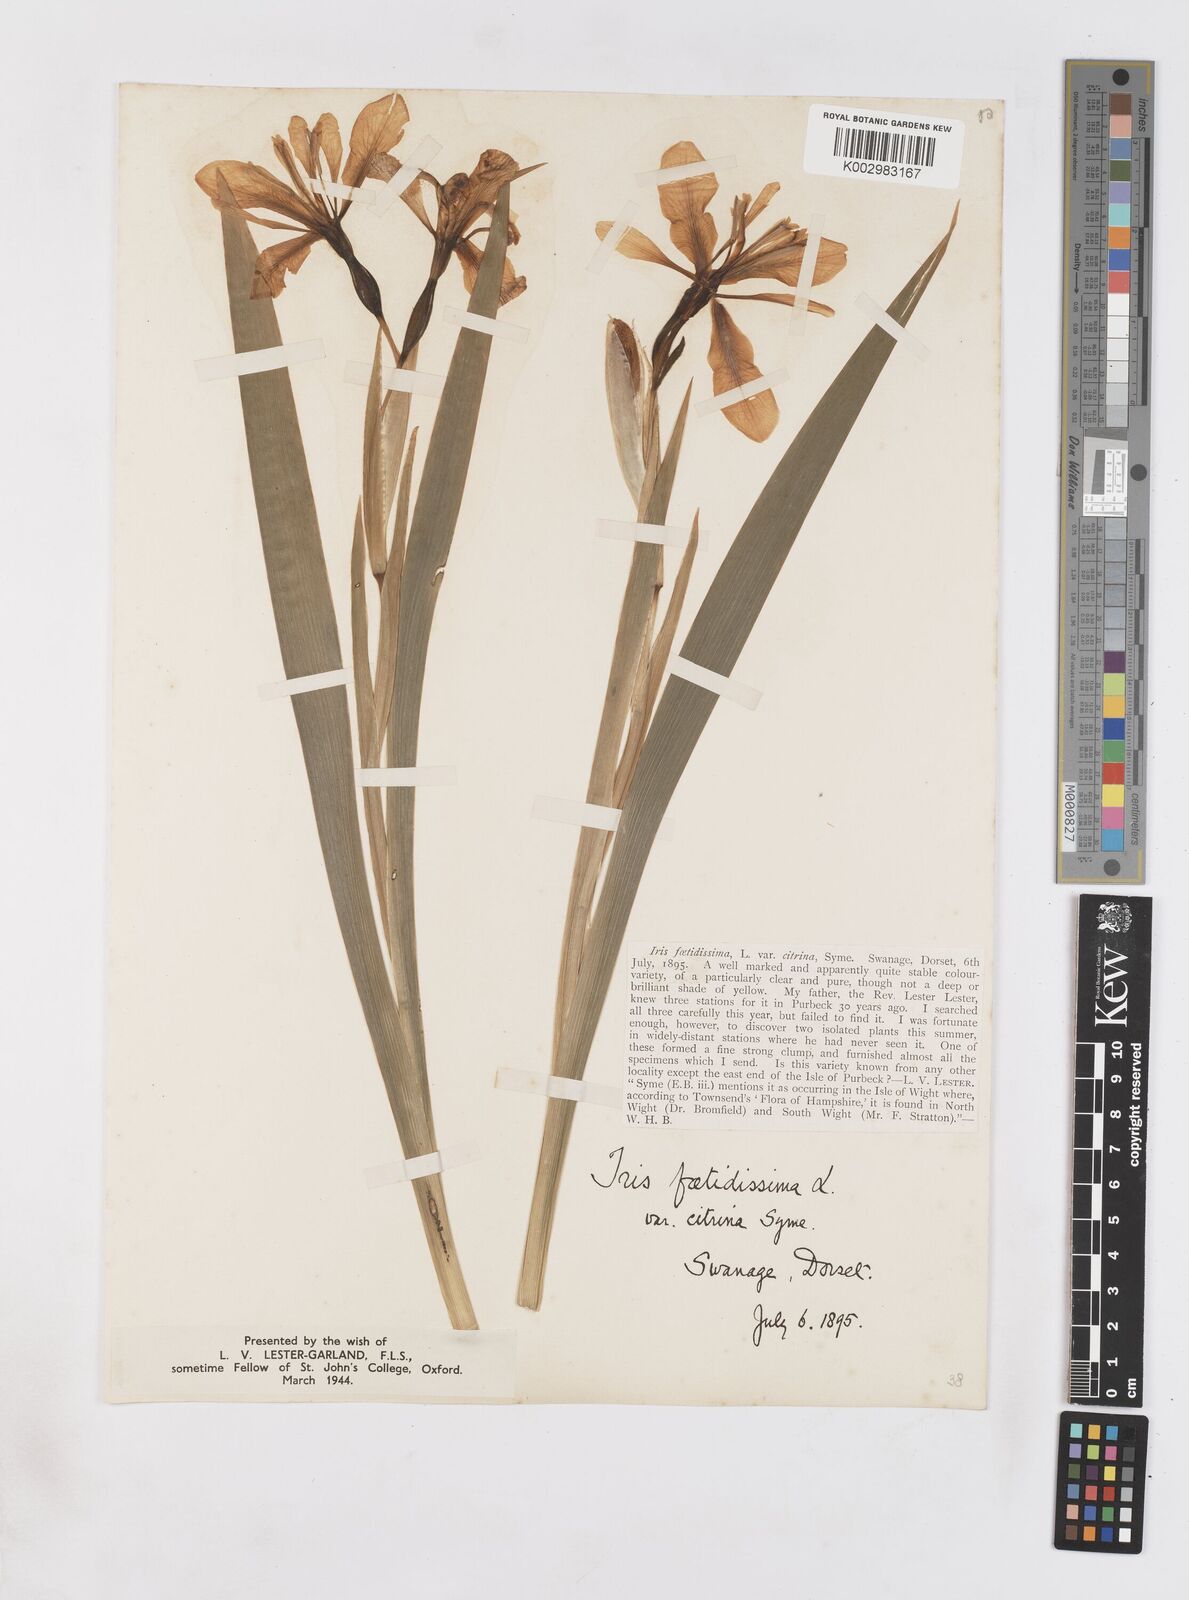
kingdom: Plantae
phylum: Tracheophyta
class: Liliopsida
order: Asparagales
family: Iridaceae
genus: Iris
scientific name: Iris foetidissima
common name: Stinking iris
